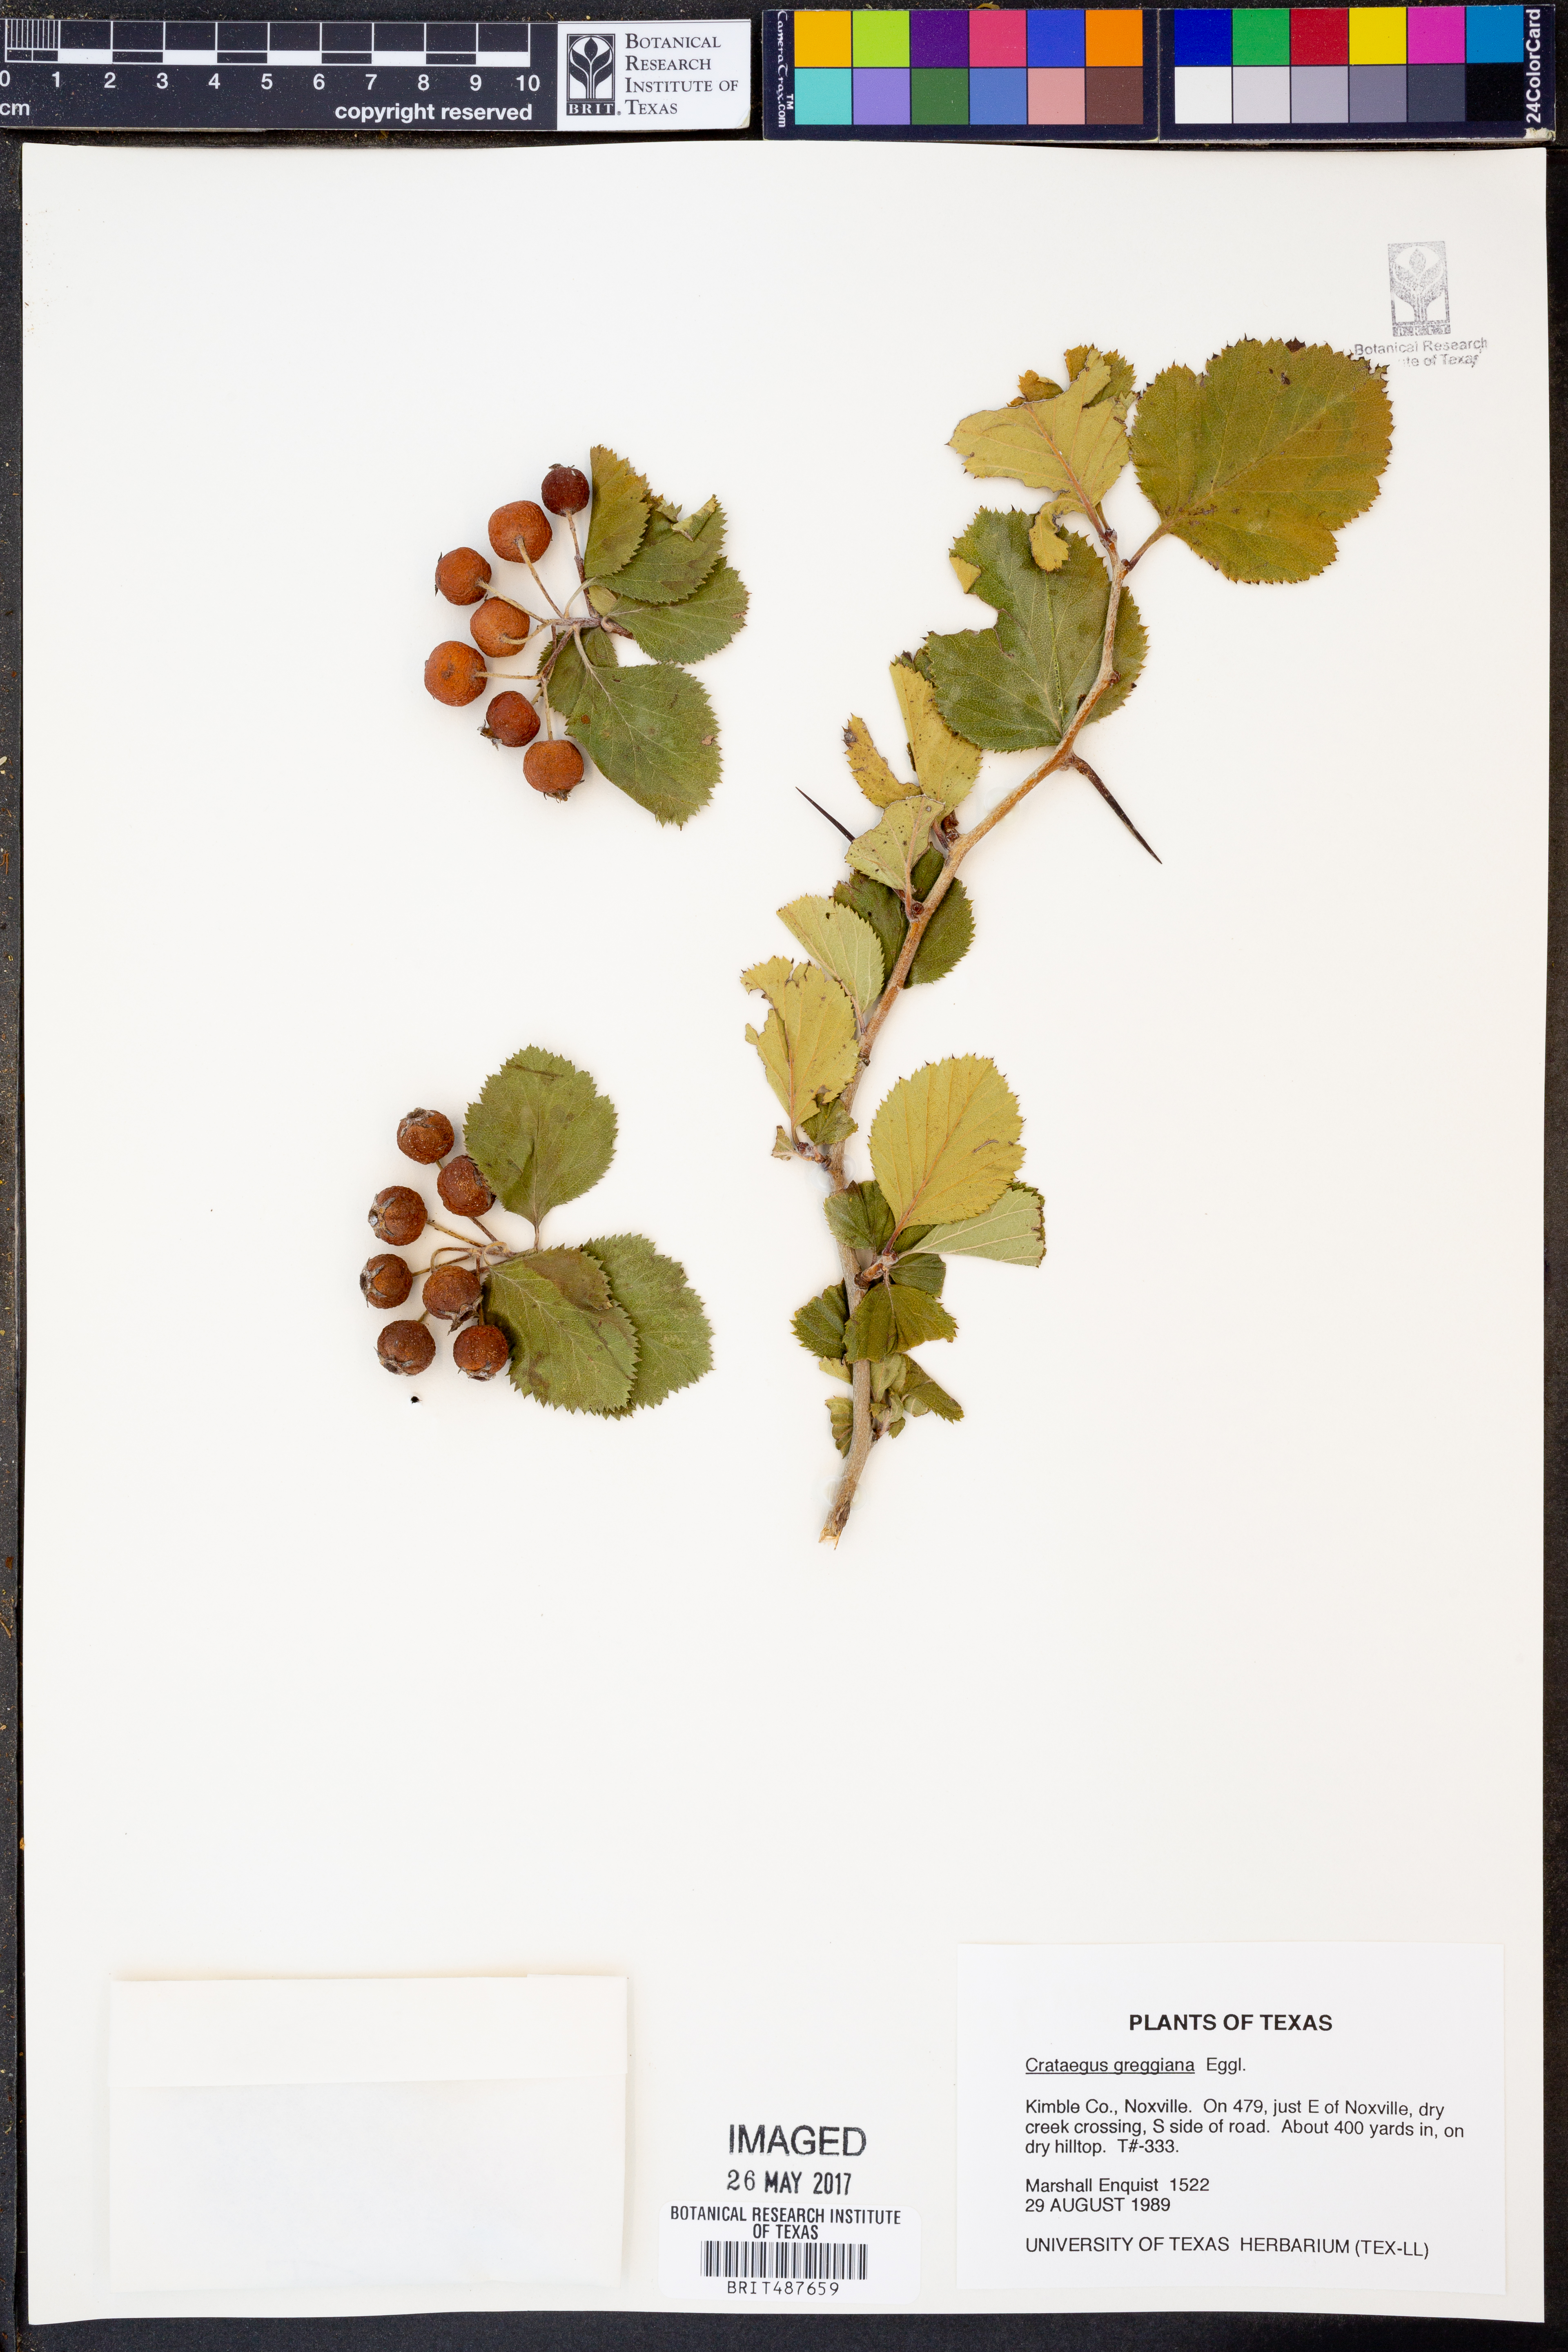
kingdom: Plantae
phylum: Tracheophyta
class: Magnoliopsida
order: Rosales
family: Rosaceae
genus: Crataegus
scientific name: Crataegus greggiana
